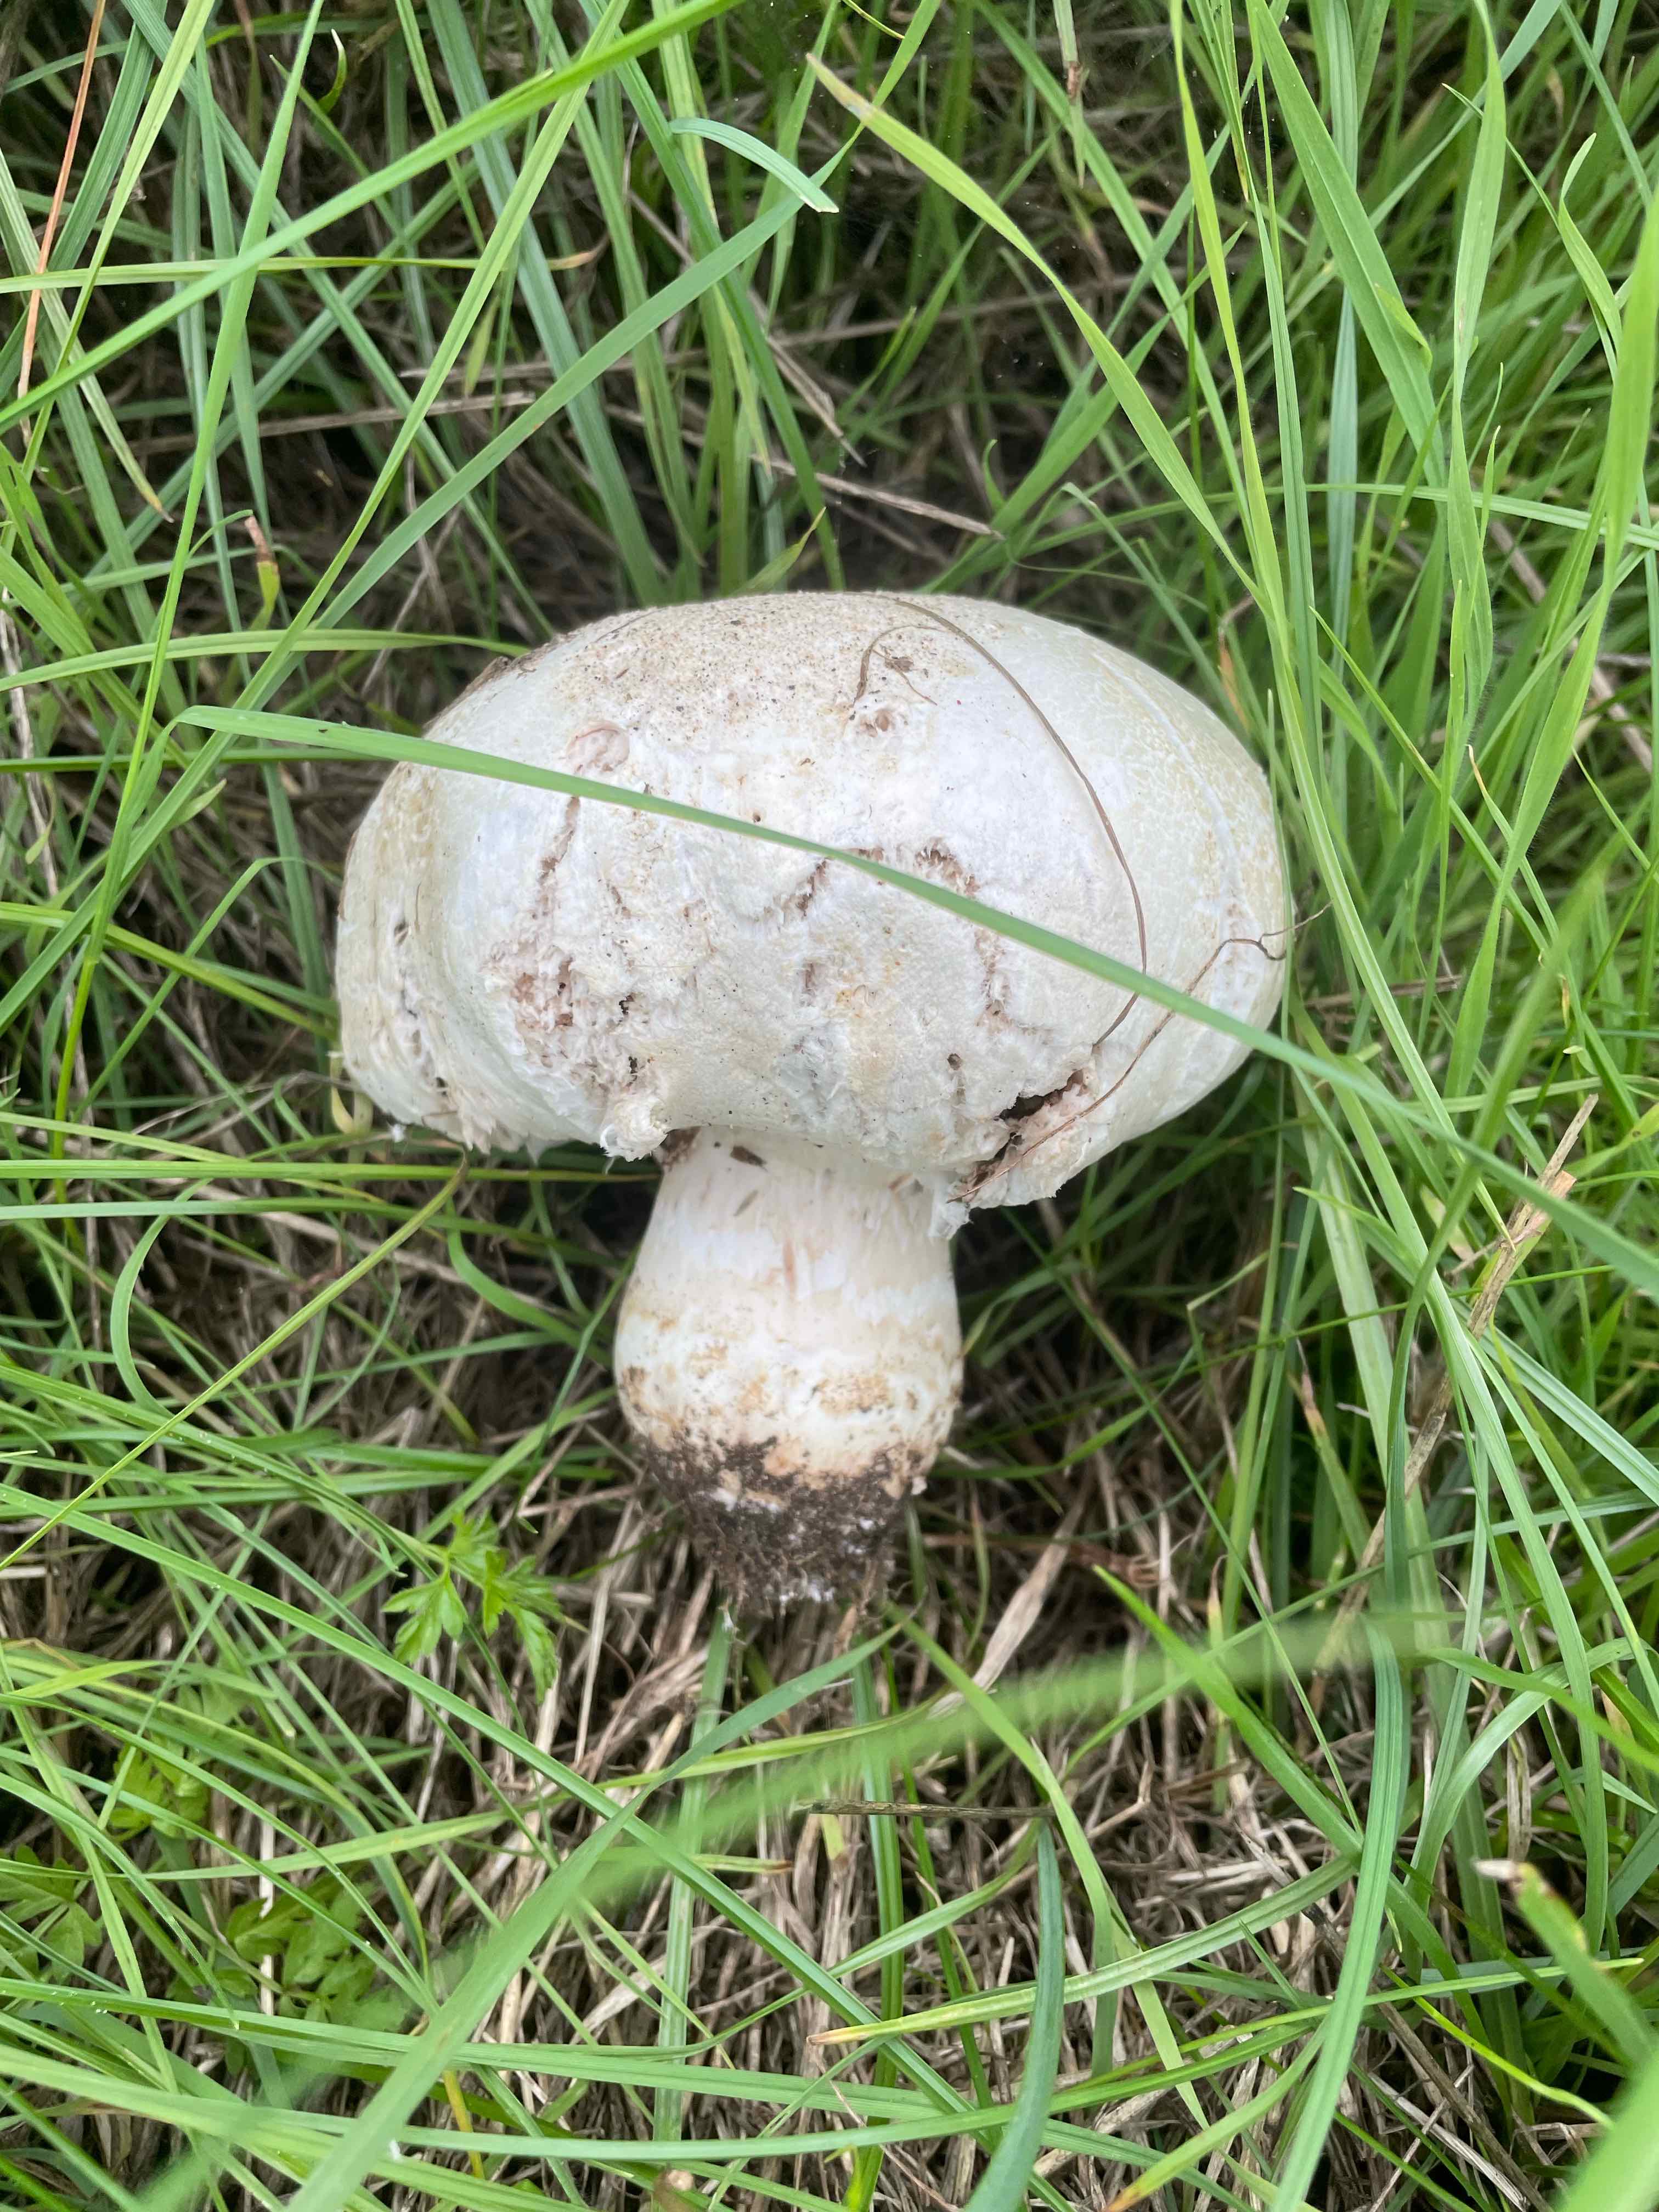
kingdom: Fungi
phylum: Basidiomycota
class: Agaricomycetes
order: Agaricales
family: Agaricaceae
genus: Agaricus
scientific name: Agaricus
